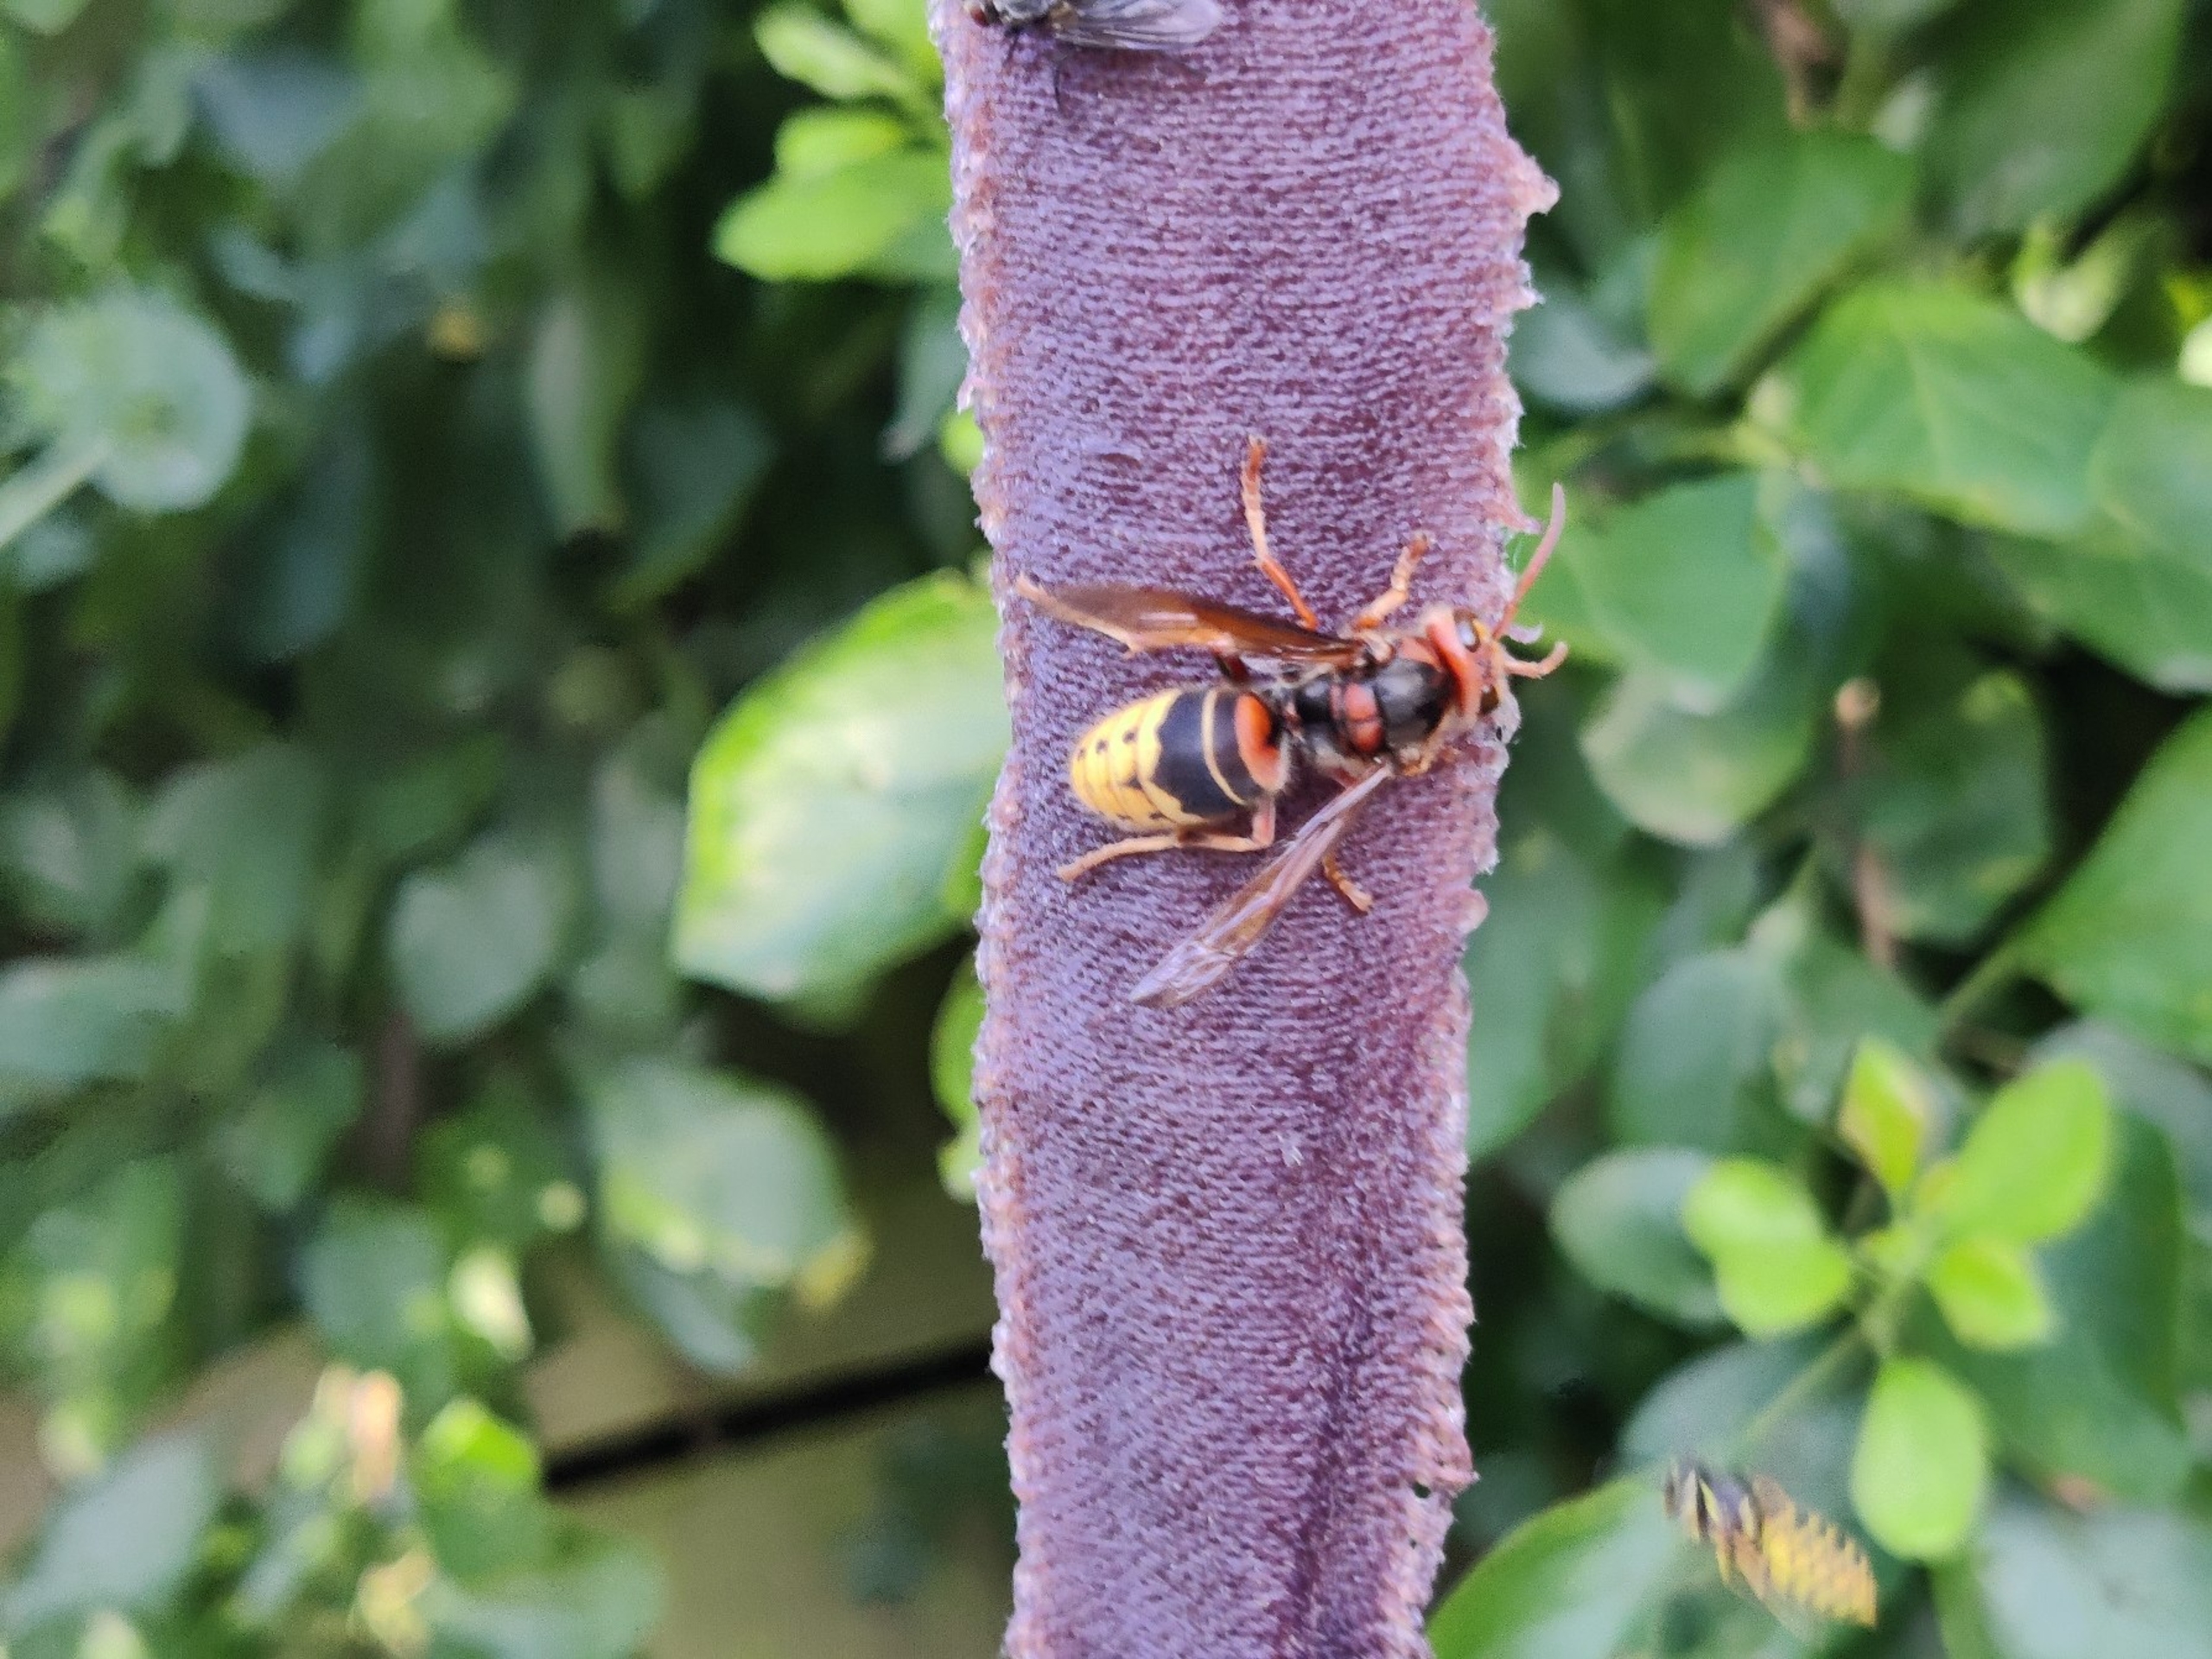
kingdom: Animalia
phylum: Arthropoda
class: Insecta
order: Hymenoptera
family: Vespidae
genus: Vespa
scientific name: Vespa crabro
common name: Stor gedehams
